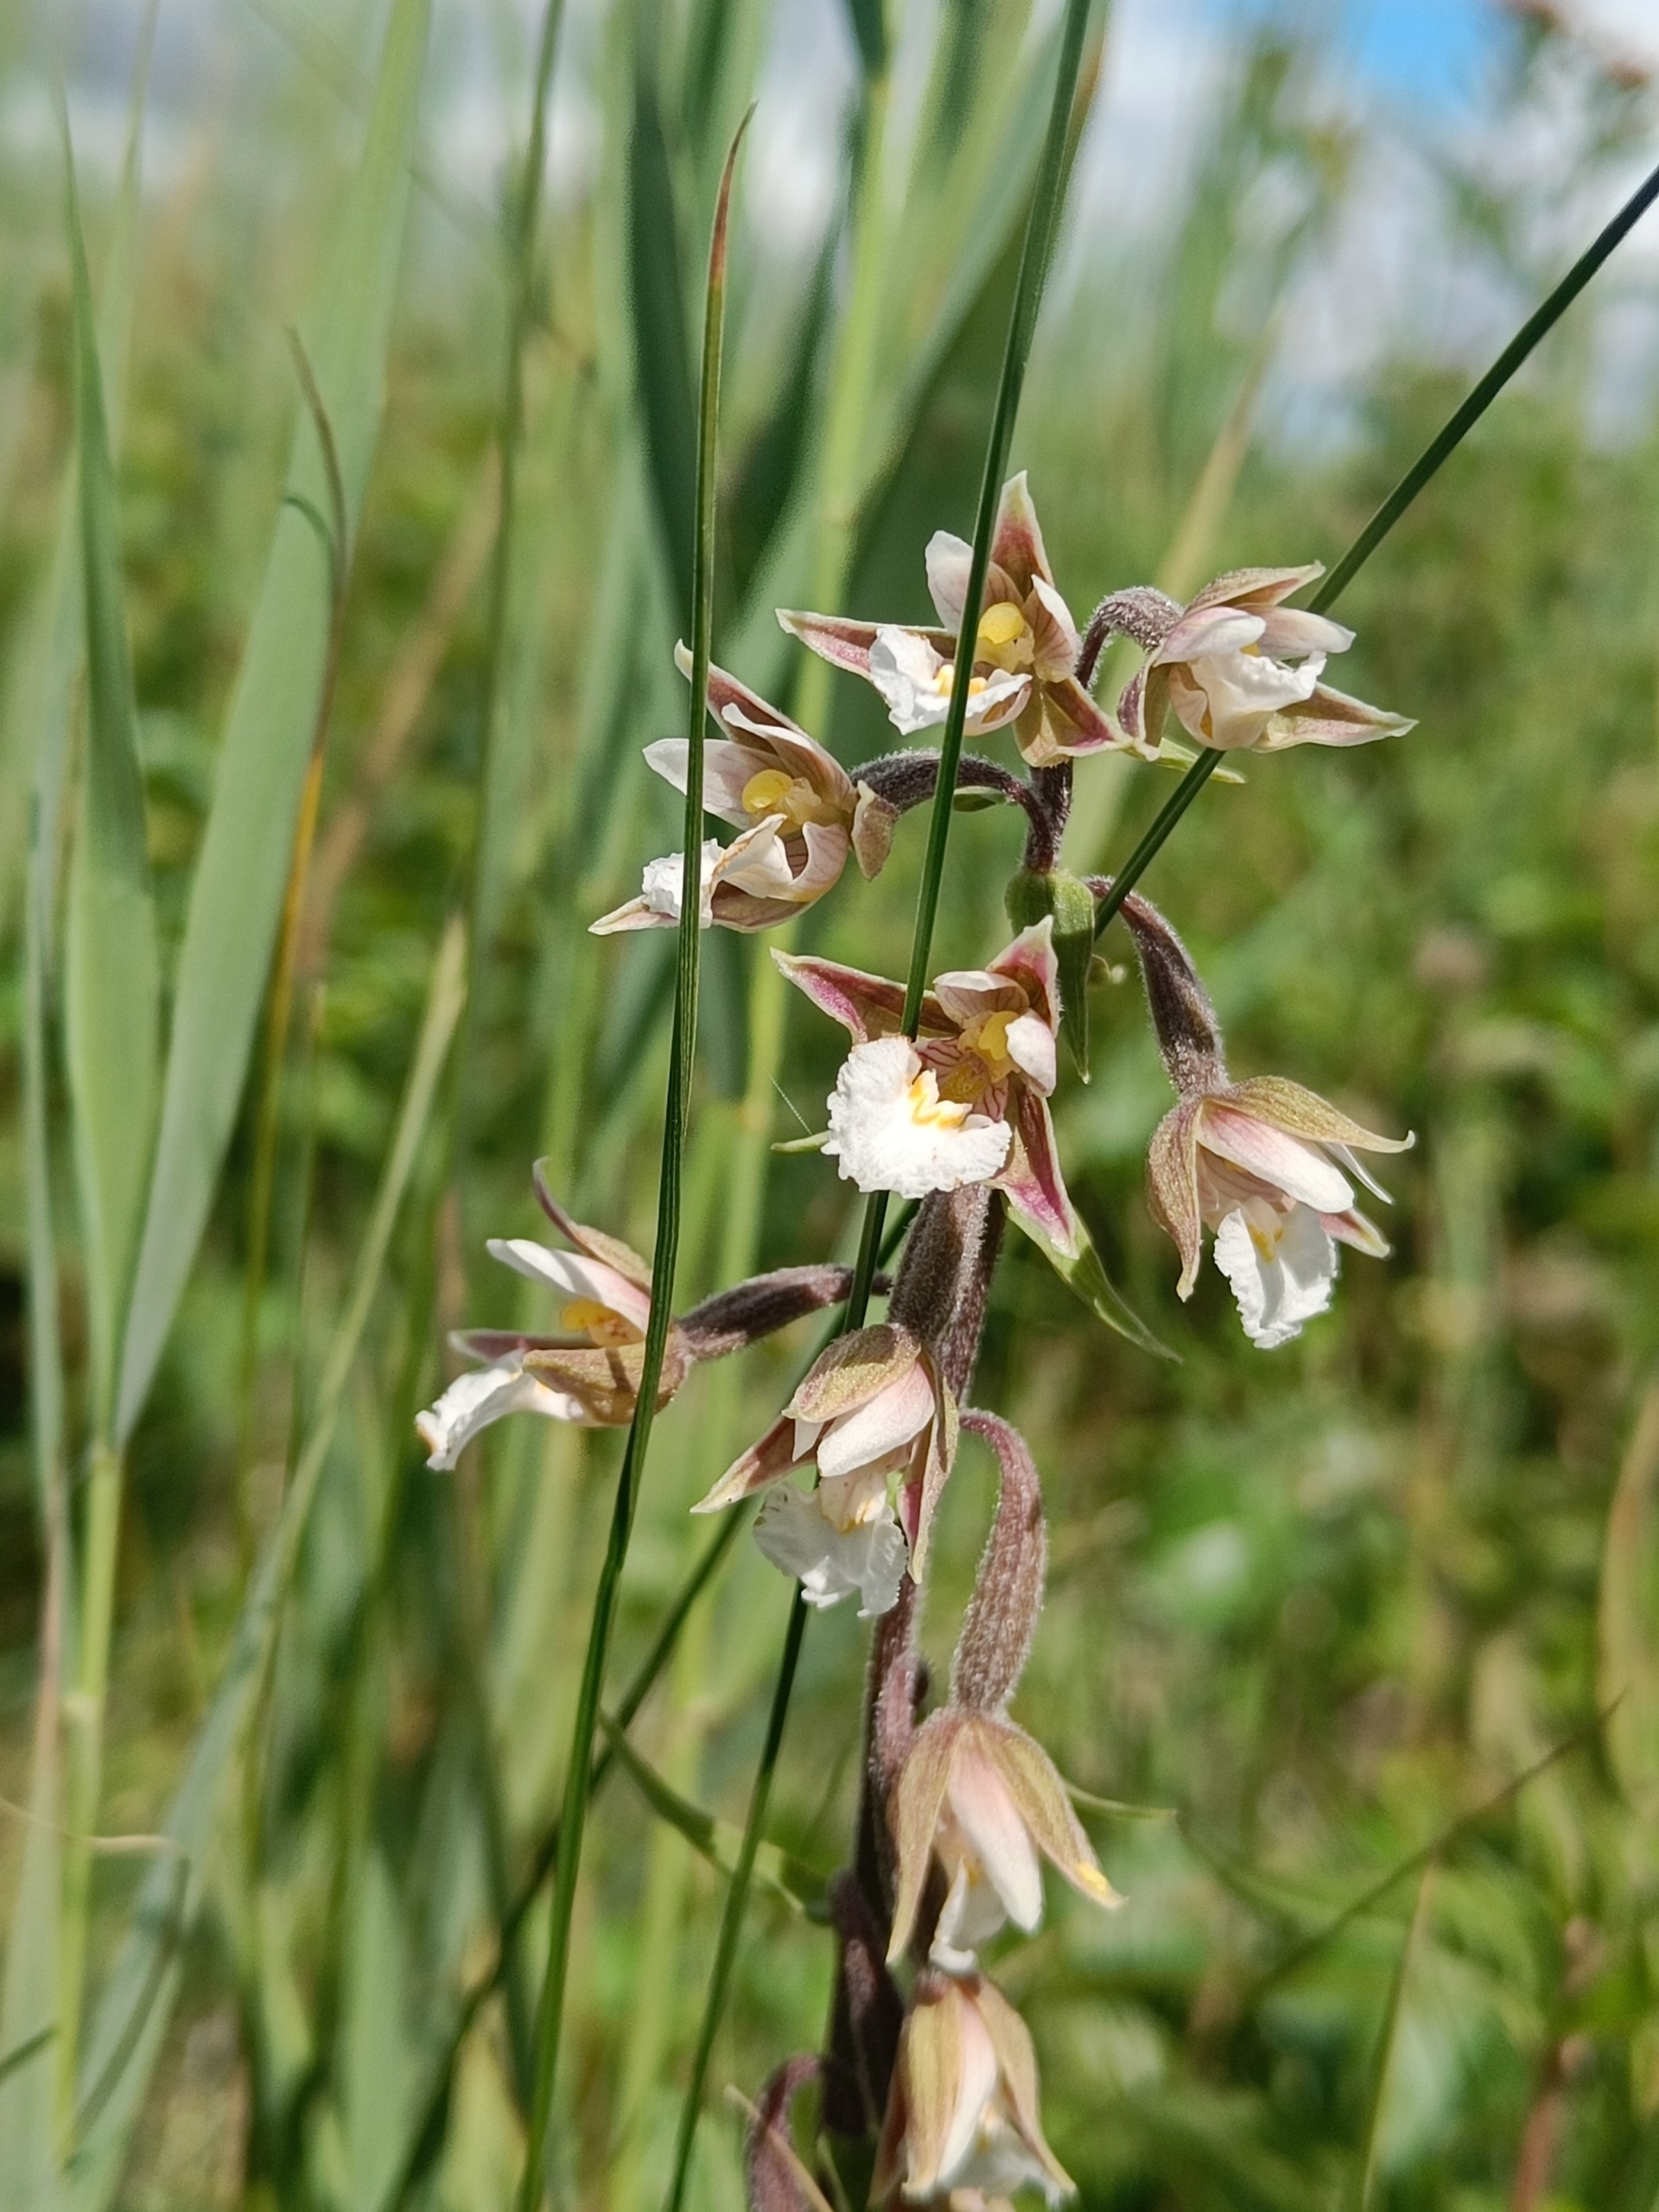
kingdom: Plantae
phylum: Tracheophyta
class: Liliopsida
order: Asparagales
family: Orchidaceae
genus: Epipactis
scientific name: Epipactis palustris
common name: Sump-hullæbe
